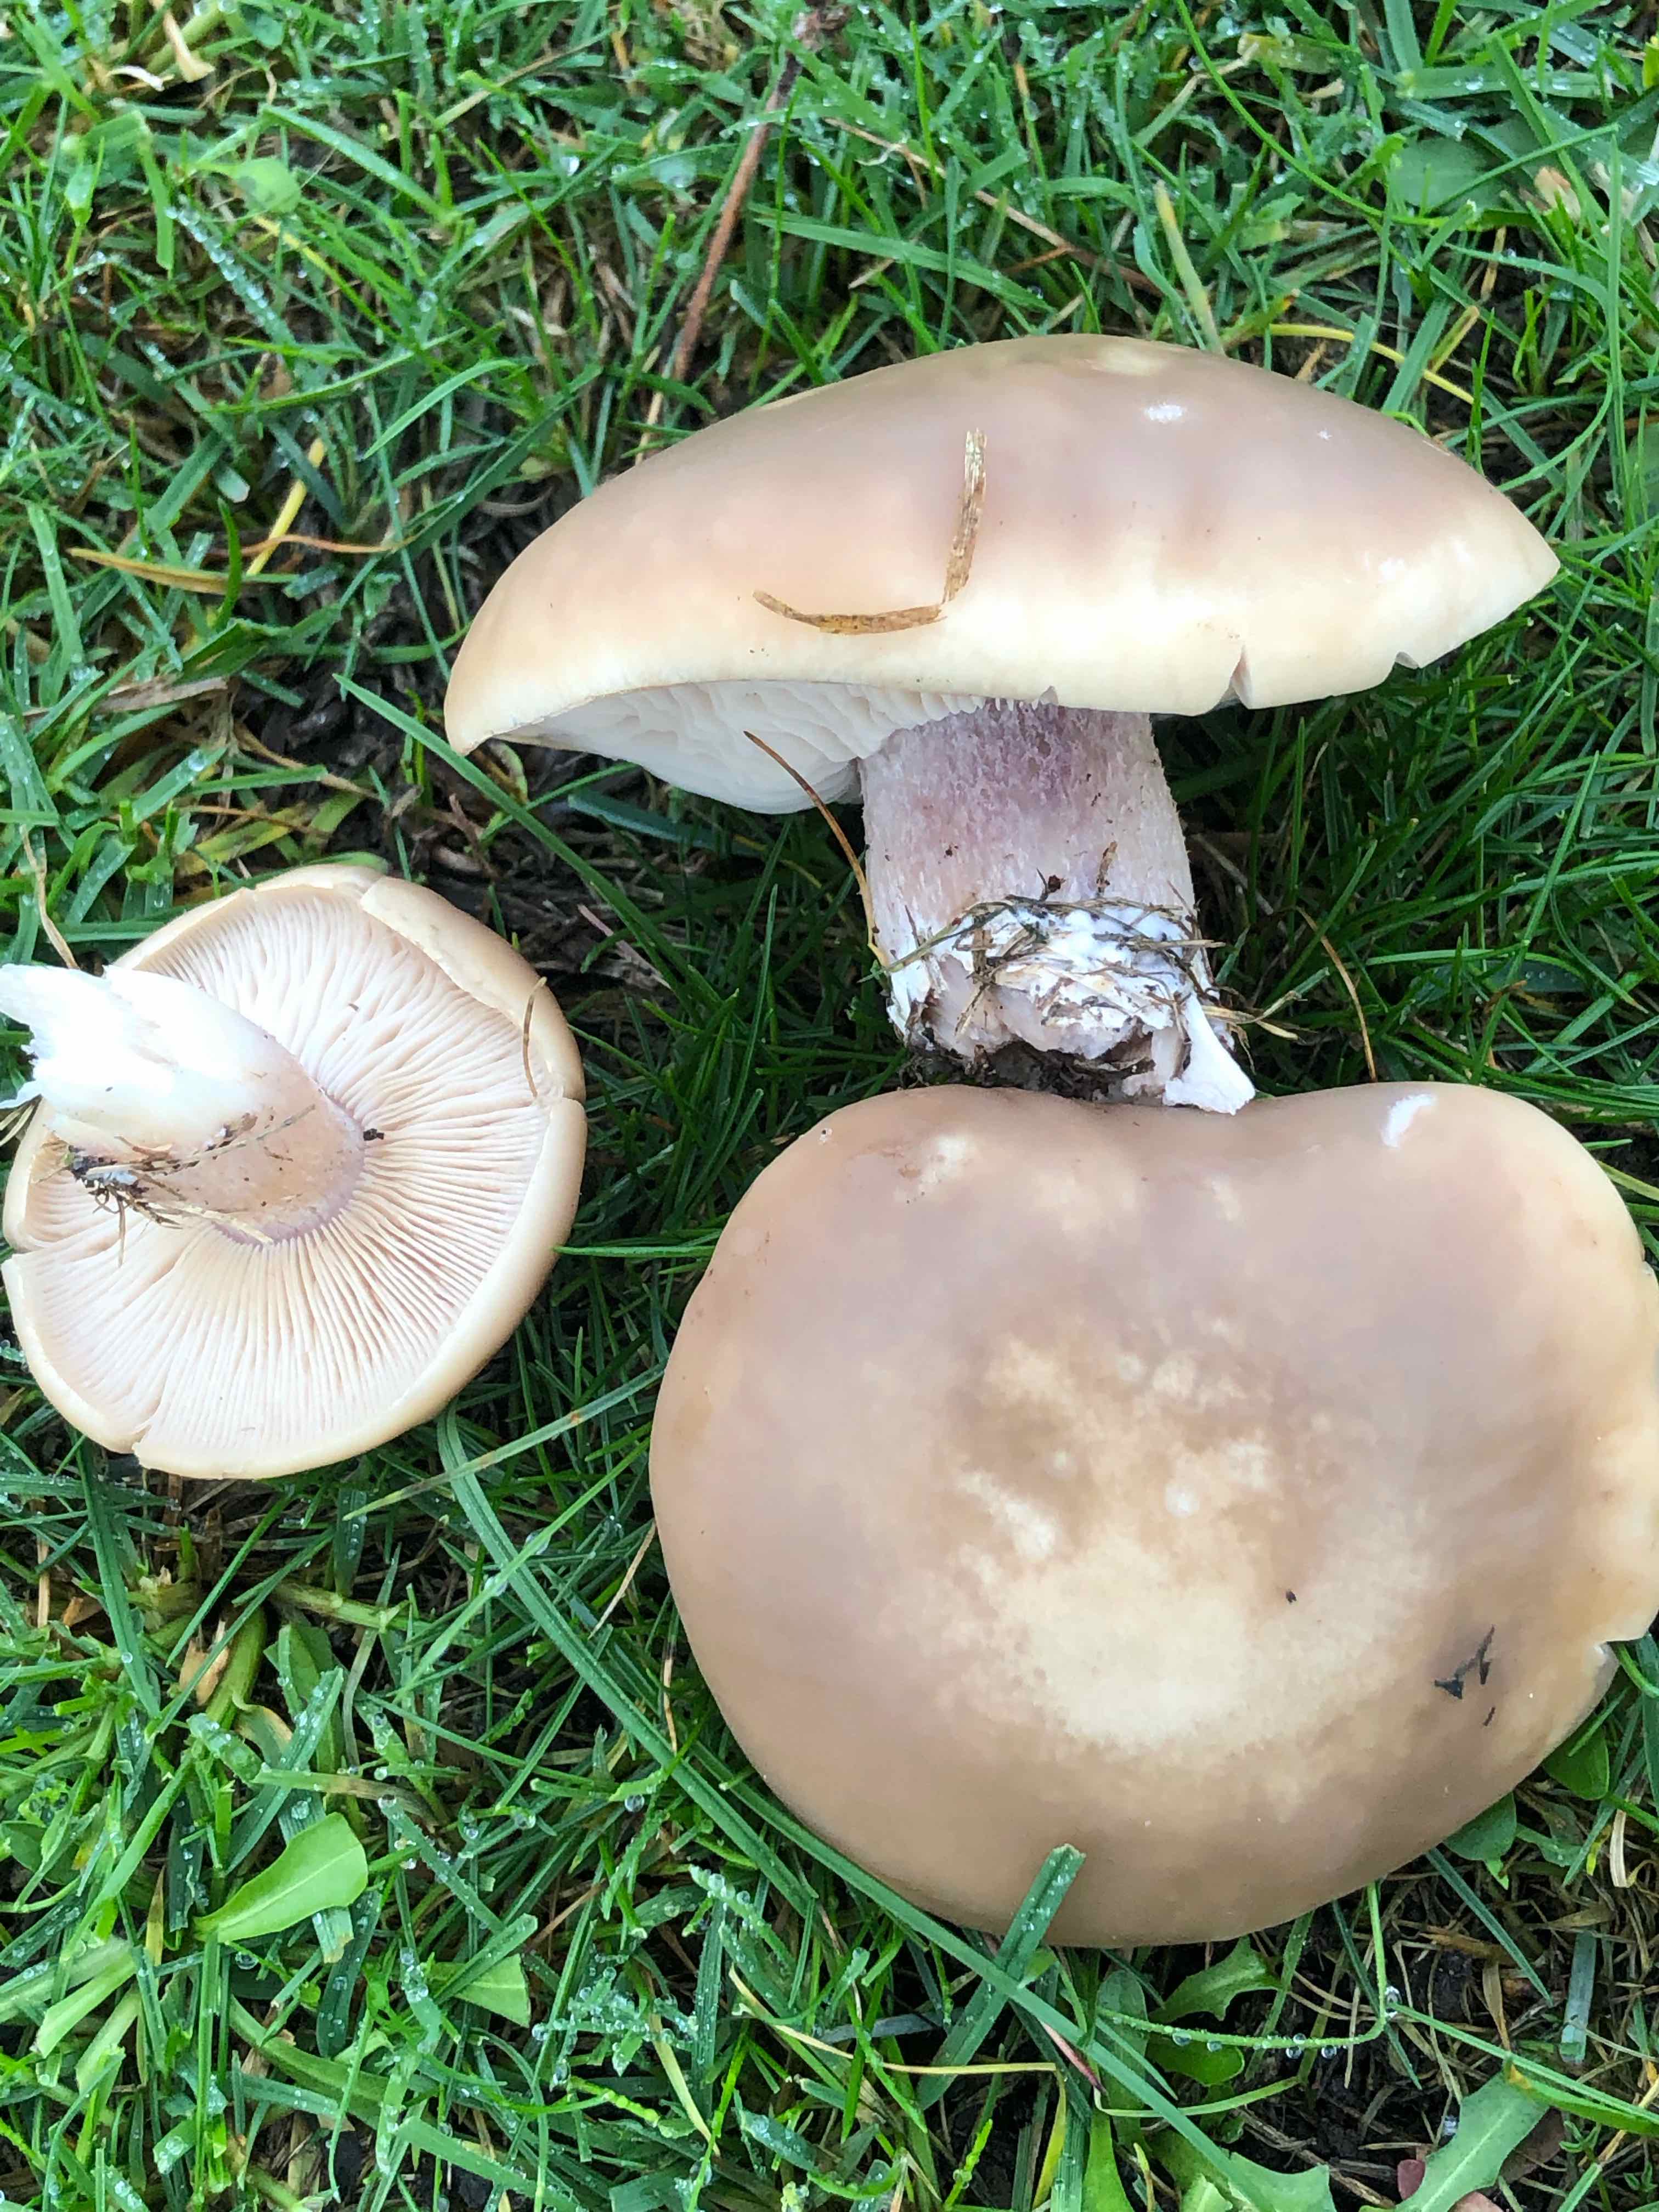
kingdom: Fungi
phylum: Basidiomycota
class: Agaricomycetes
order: Agaricales
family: Tricholomataceae
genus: Lepista
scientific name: Lepista personata
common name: bleg hekseringshat
